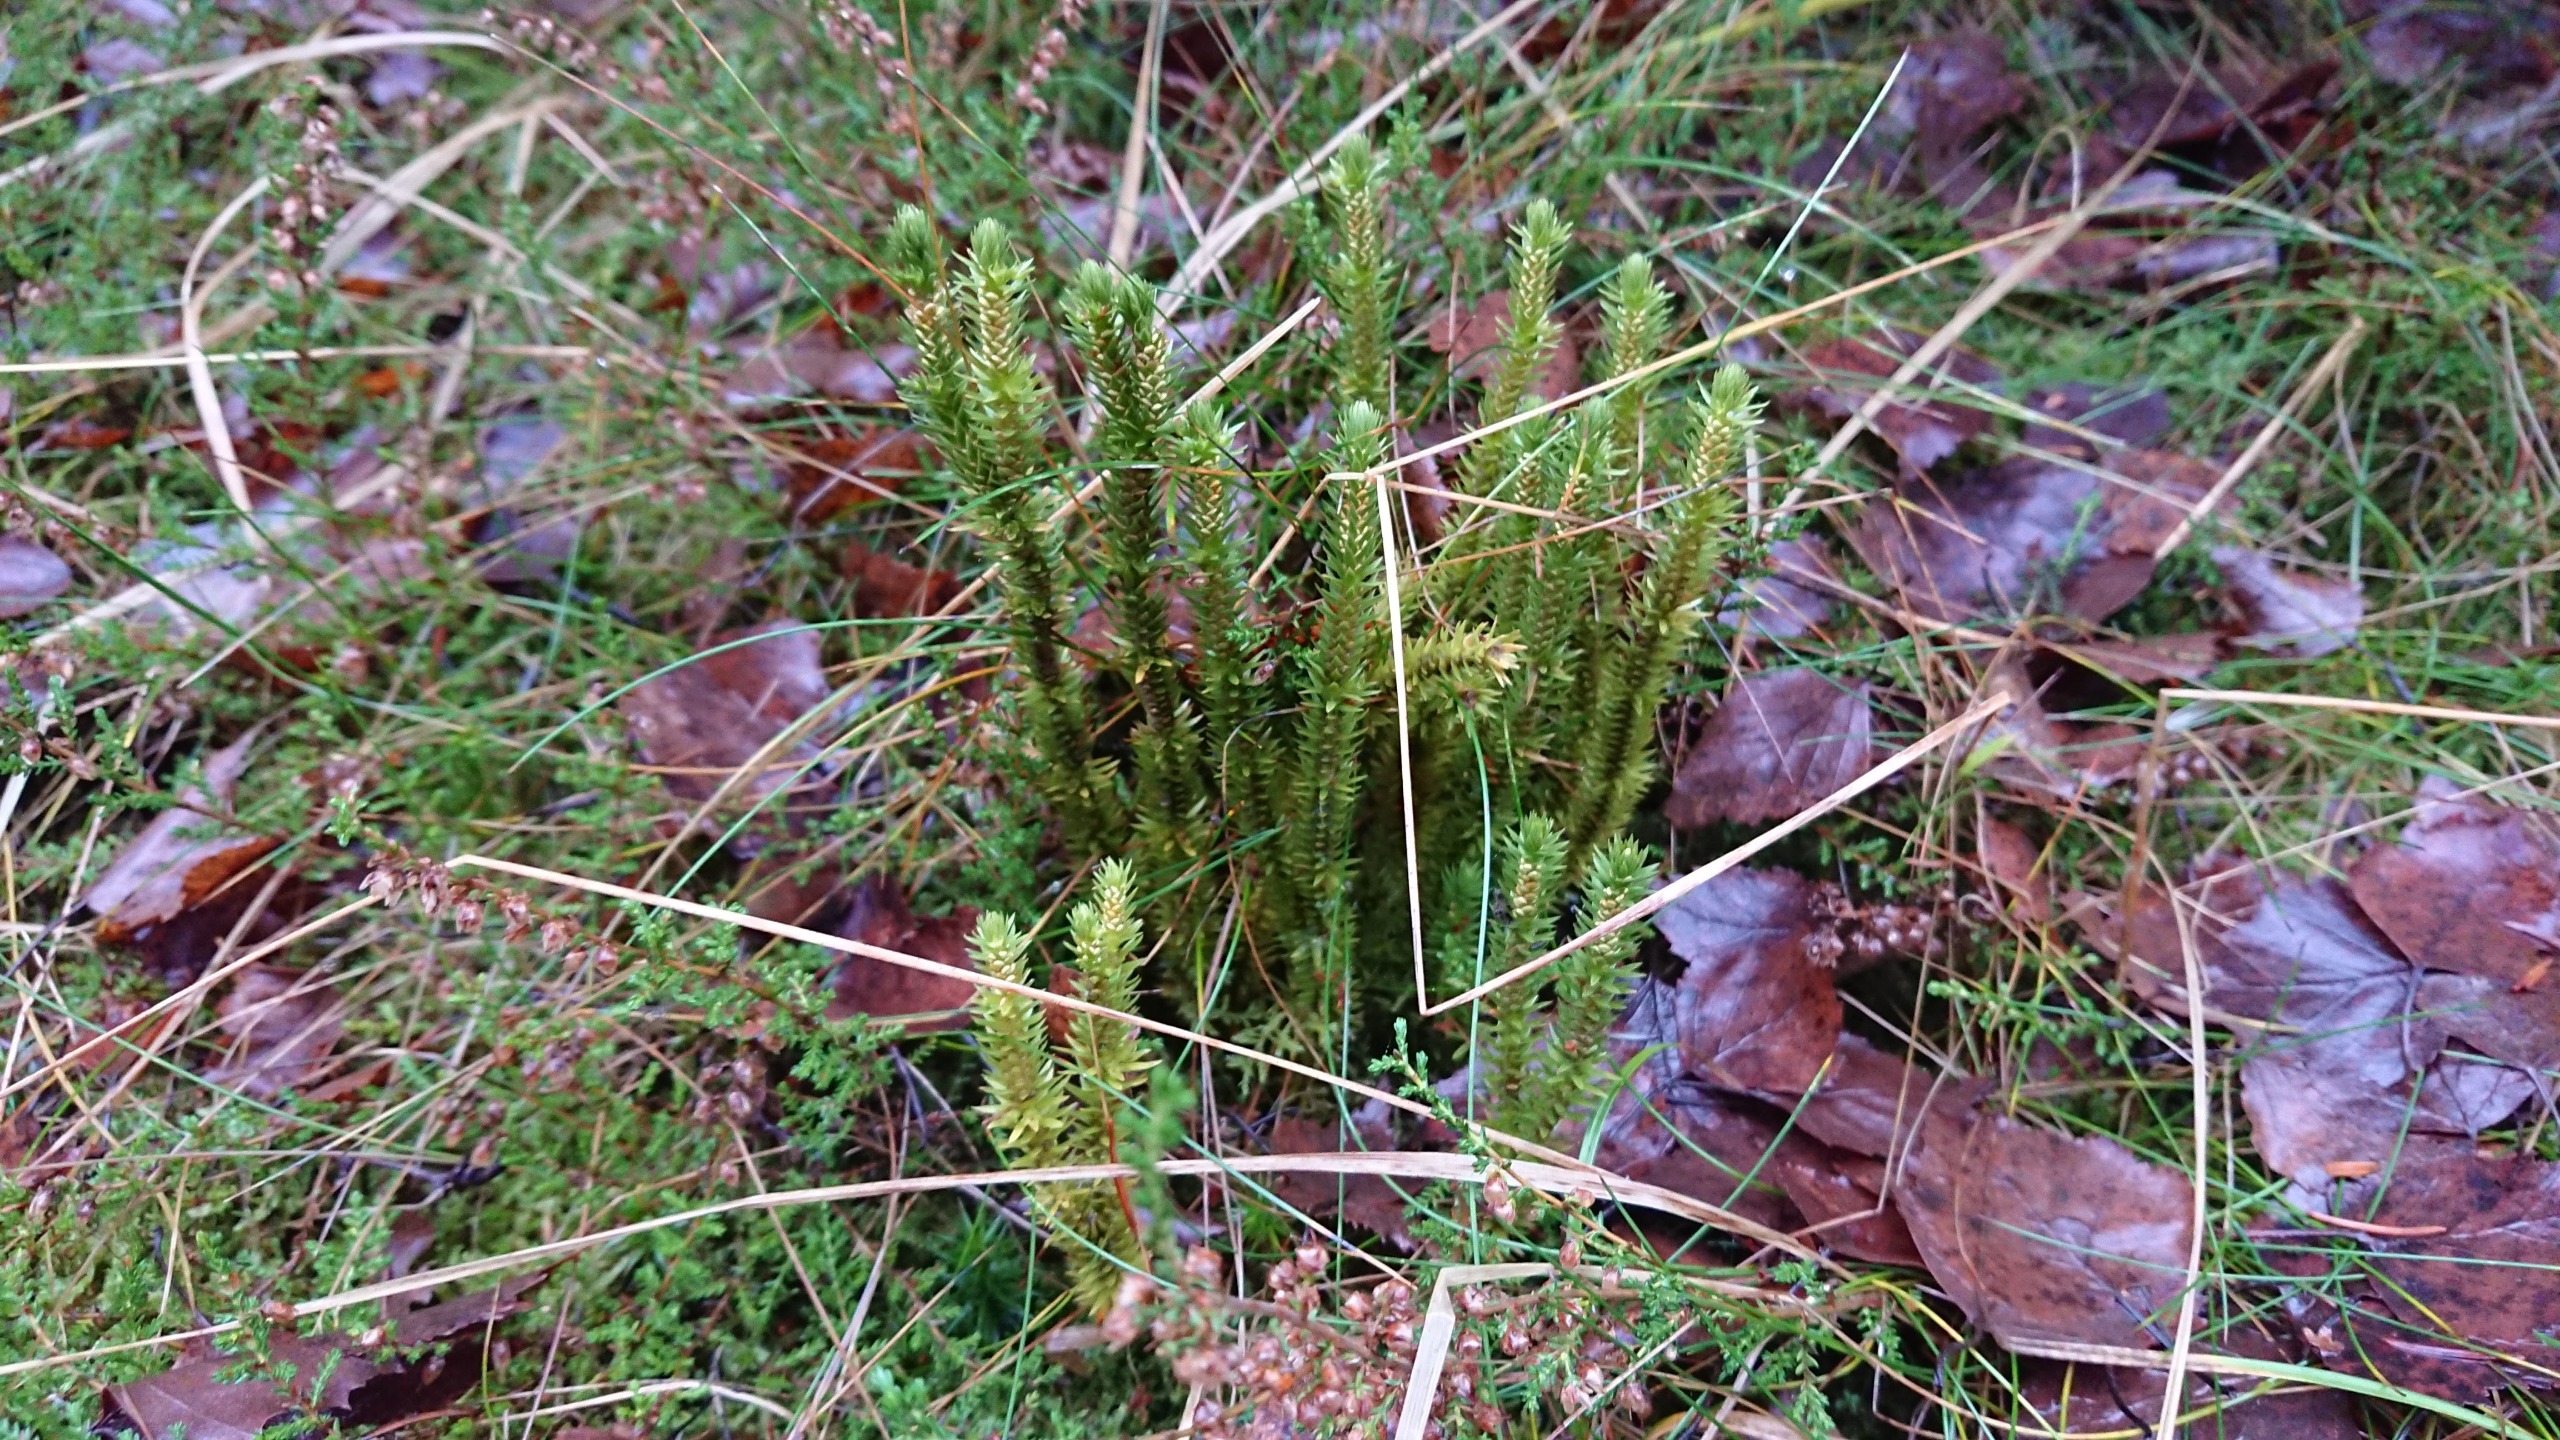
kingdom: Plantae
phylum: Tracheophyta
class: Lycopodiopsida
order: Lycopodiales
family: Lycopodiaceae
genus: Huperzia
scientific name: Huperzia selago
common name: Otteradet ulvefod
